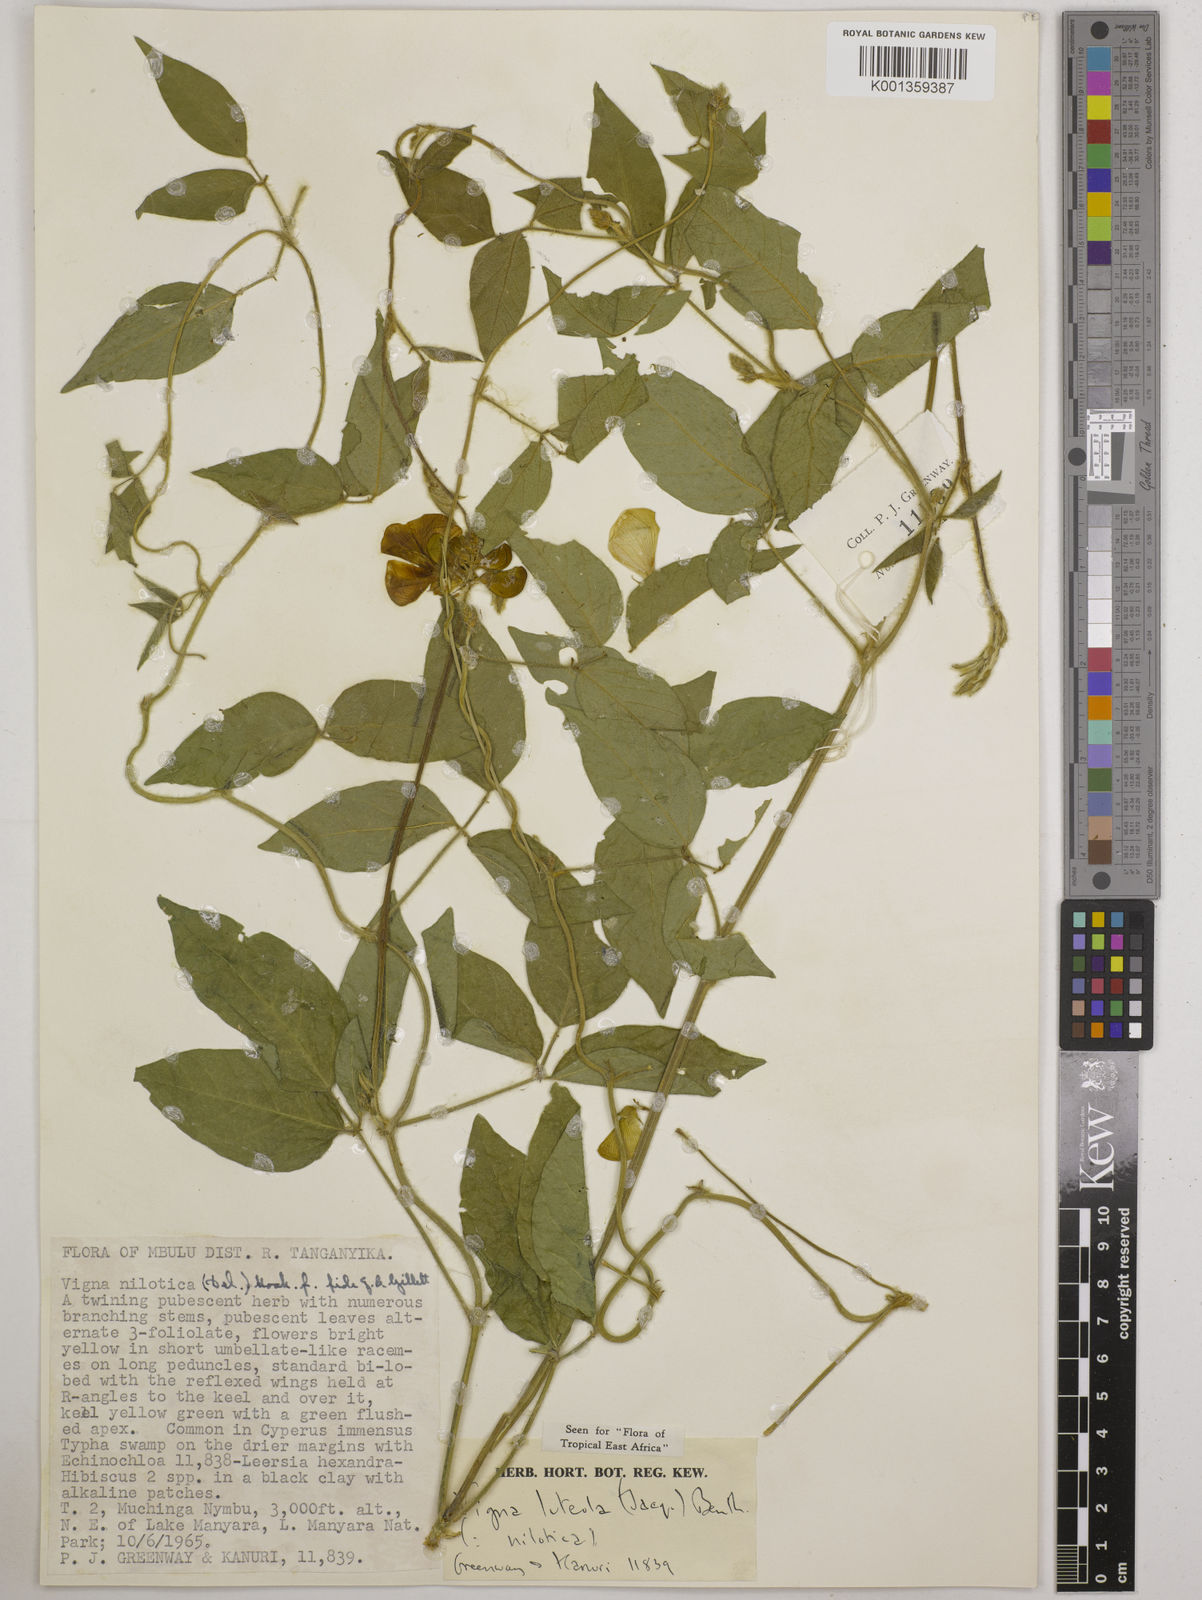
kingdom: Plantae
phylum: Tracheophyta
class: Magnoliopsida
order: Fabales
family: Fabaceae
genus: Vigna
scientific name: Vigna luteola
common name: Hairypod cowpea
